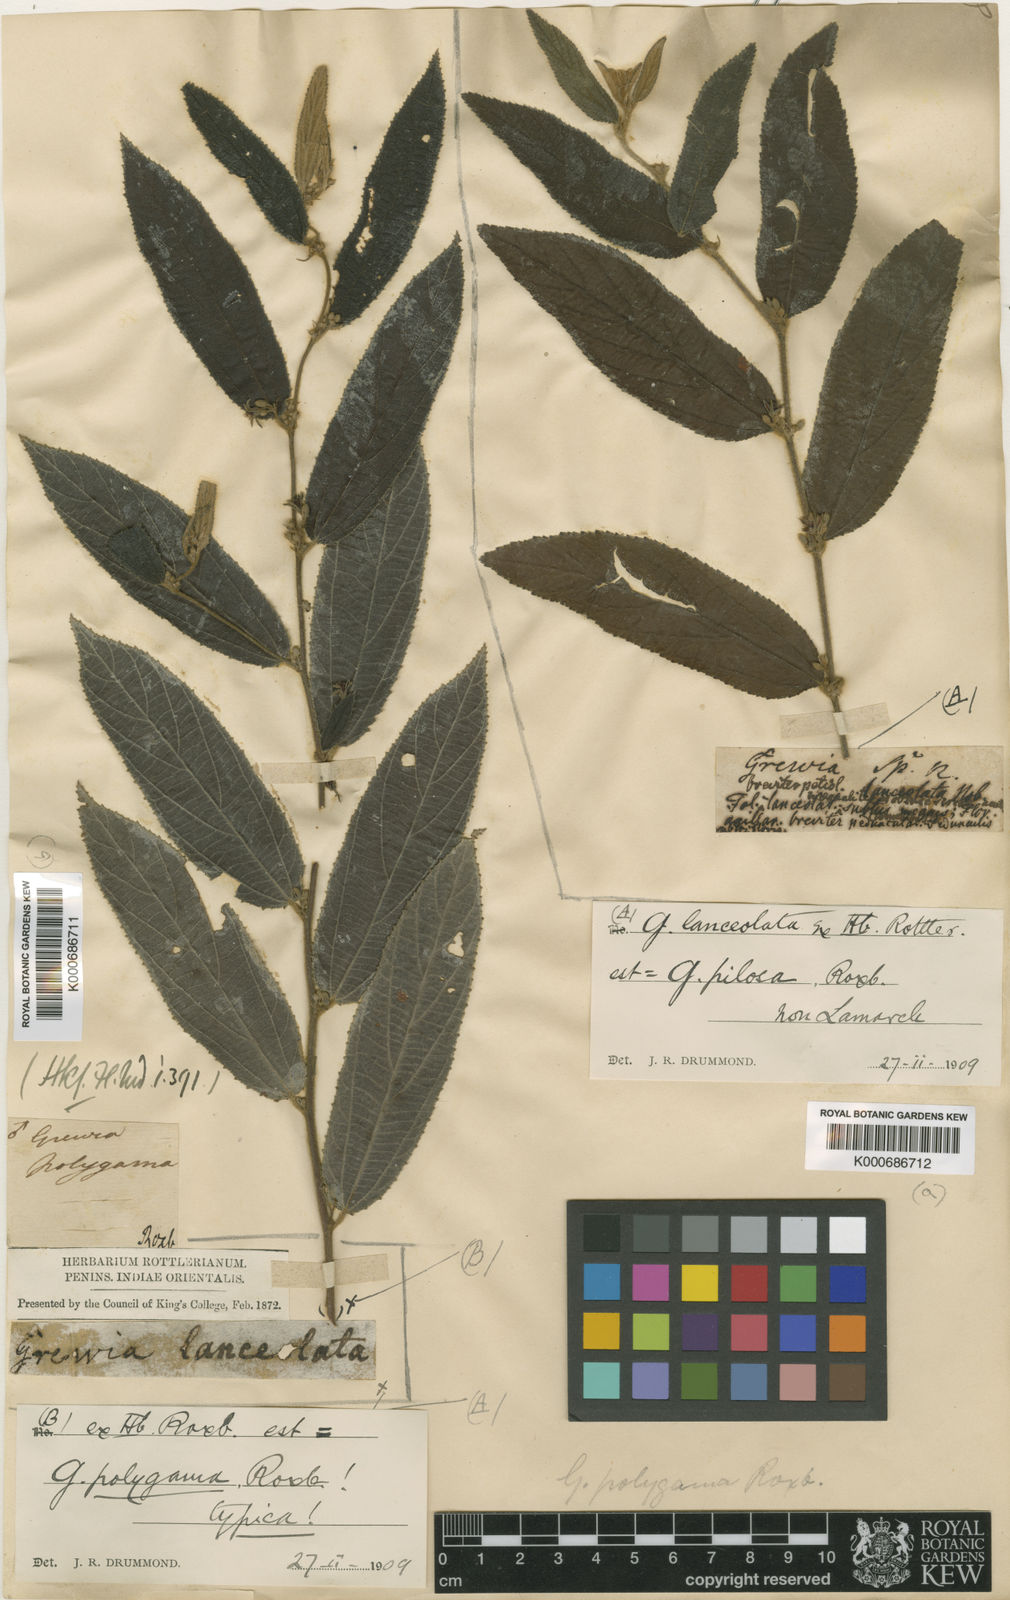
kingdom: Plantae
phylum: Tracheophyta
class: Magnoliopsida
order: Malvales
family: Malvaceae
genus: Grewia
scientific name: Grewia excelsa
